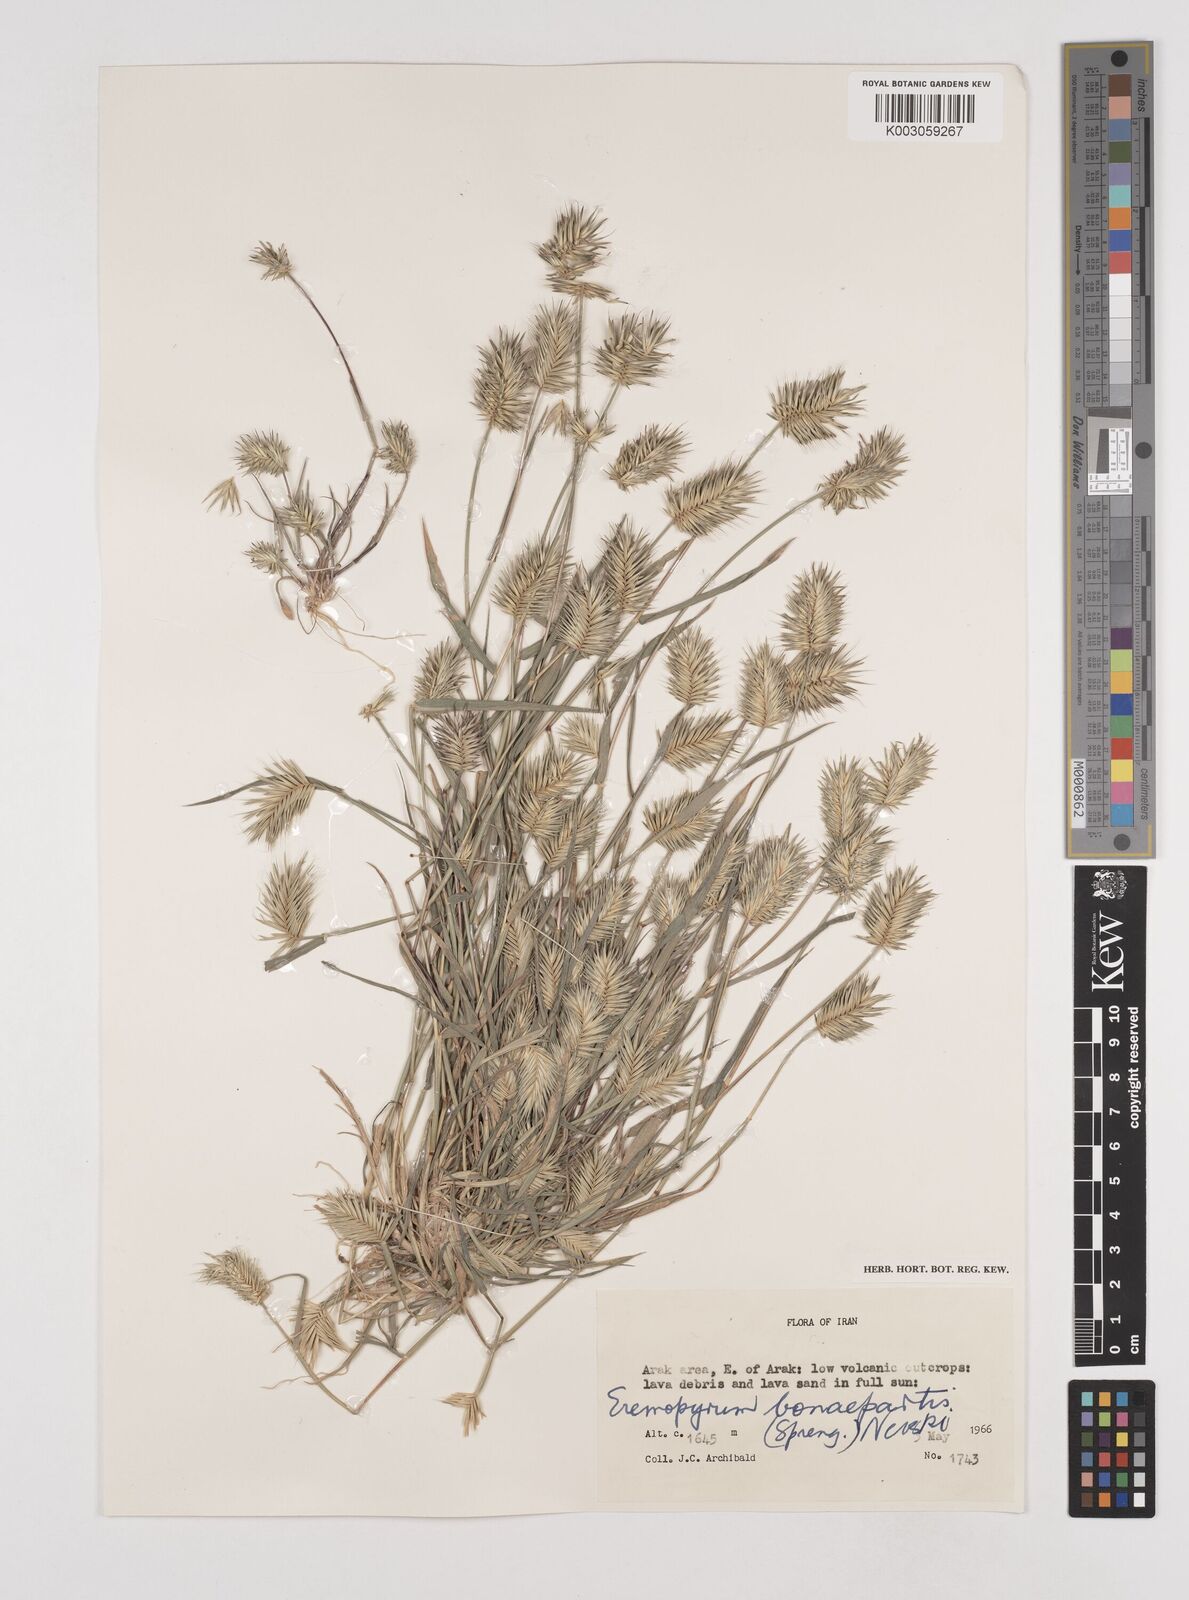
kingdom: Plantae
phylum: Tracheophyta
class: Liliopsida
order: Poales
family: Poaceae
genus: Eremopyrum
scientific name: Eremopyrum bonaepartis
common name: Tapertip false wheatgrass
